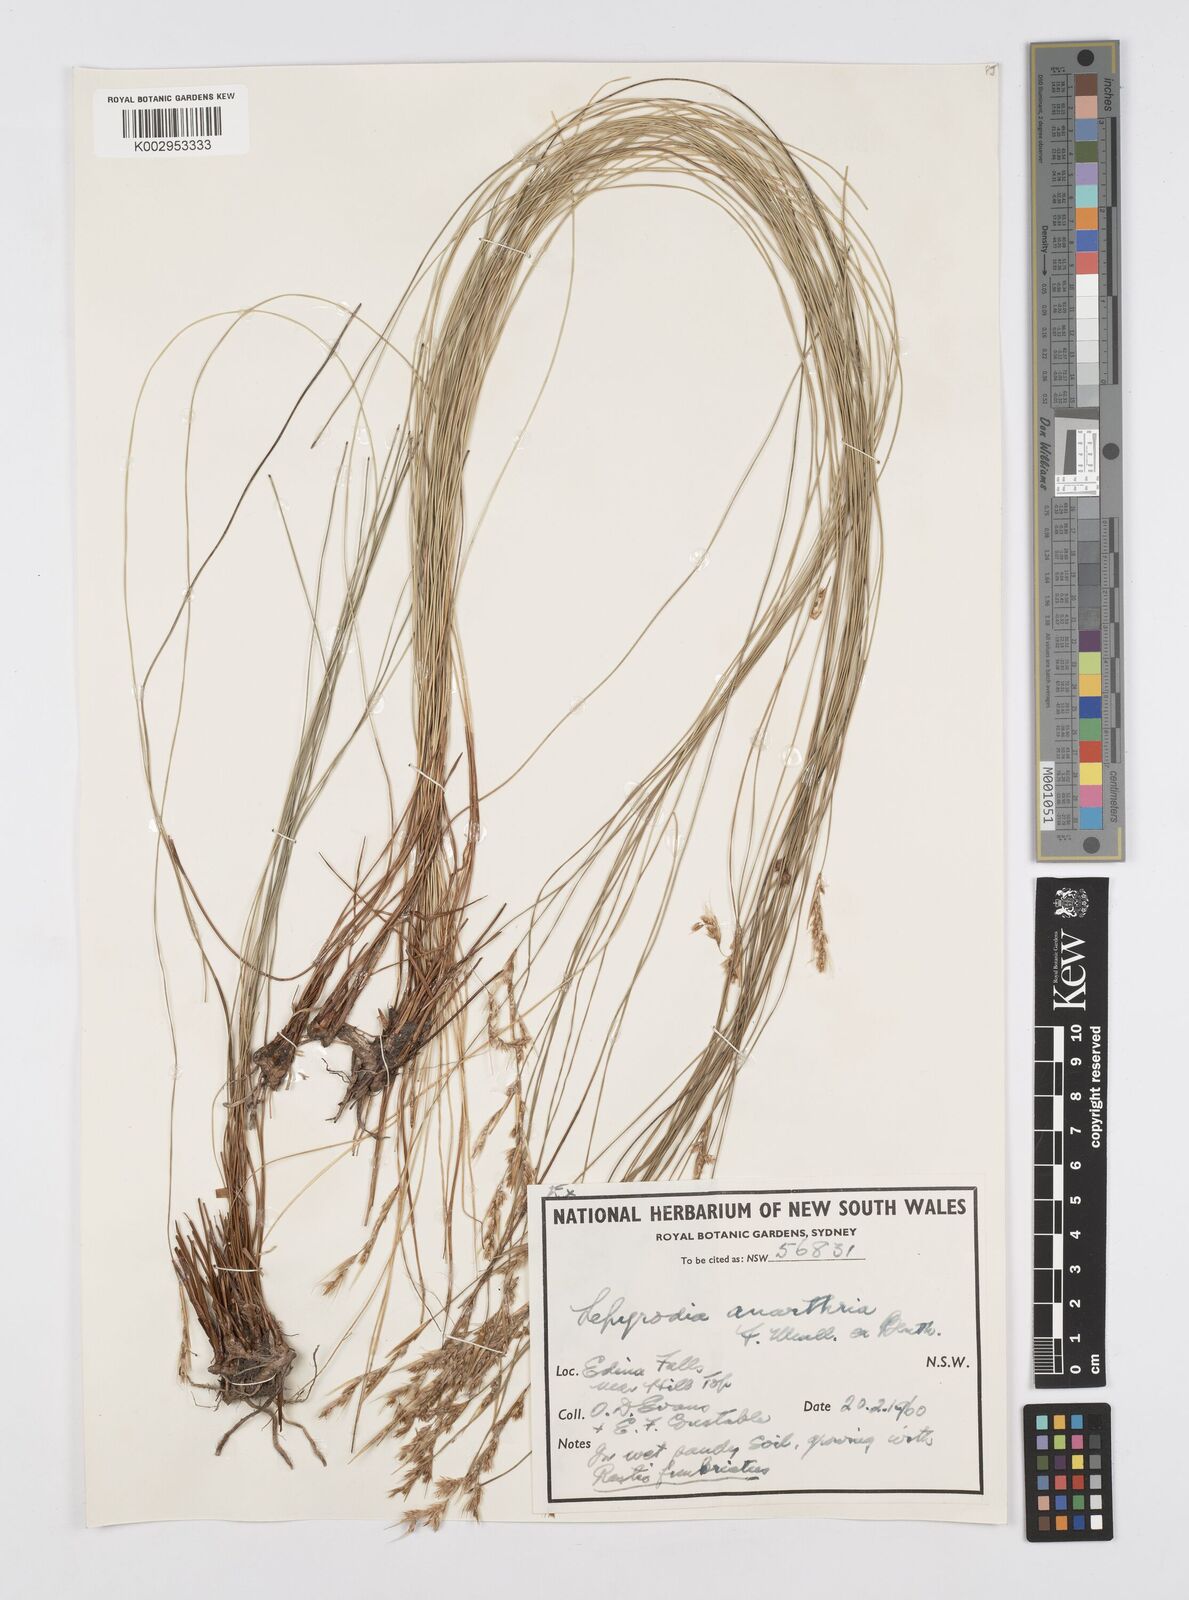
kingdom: Plantae
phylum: Tracheophyta
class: Liliopsida
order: Poales
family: Restionaceae
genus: Lepyrodia
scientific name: Lepyrodia anarthria
